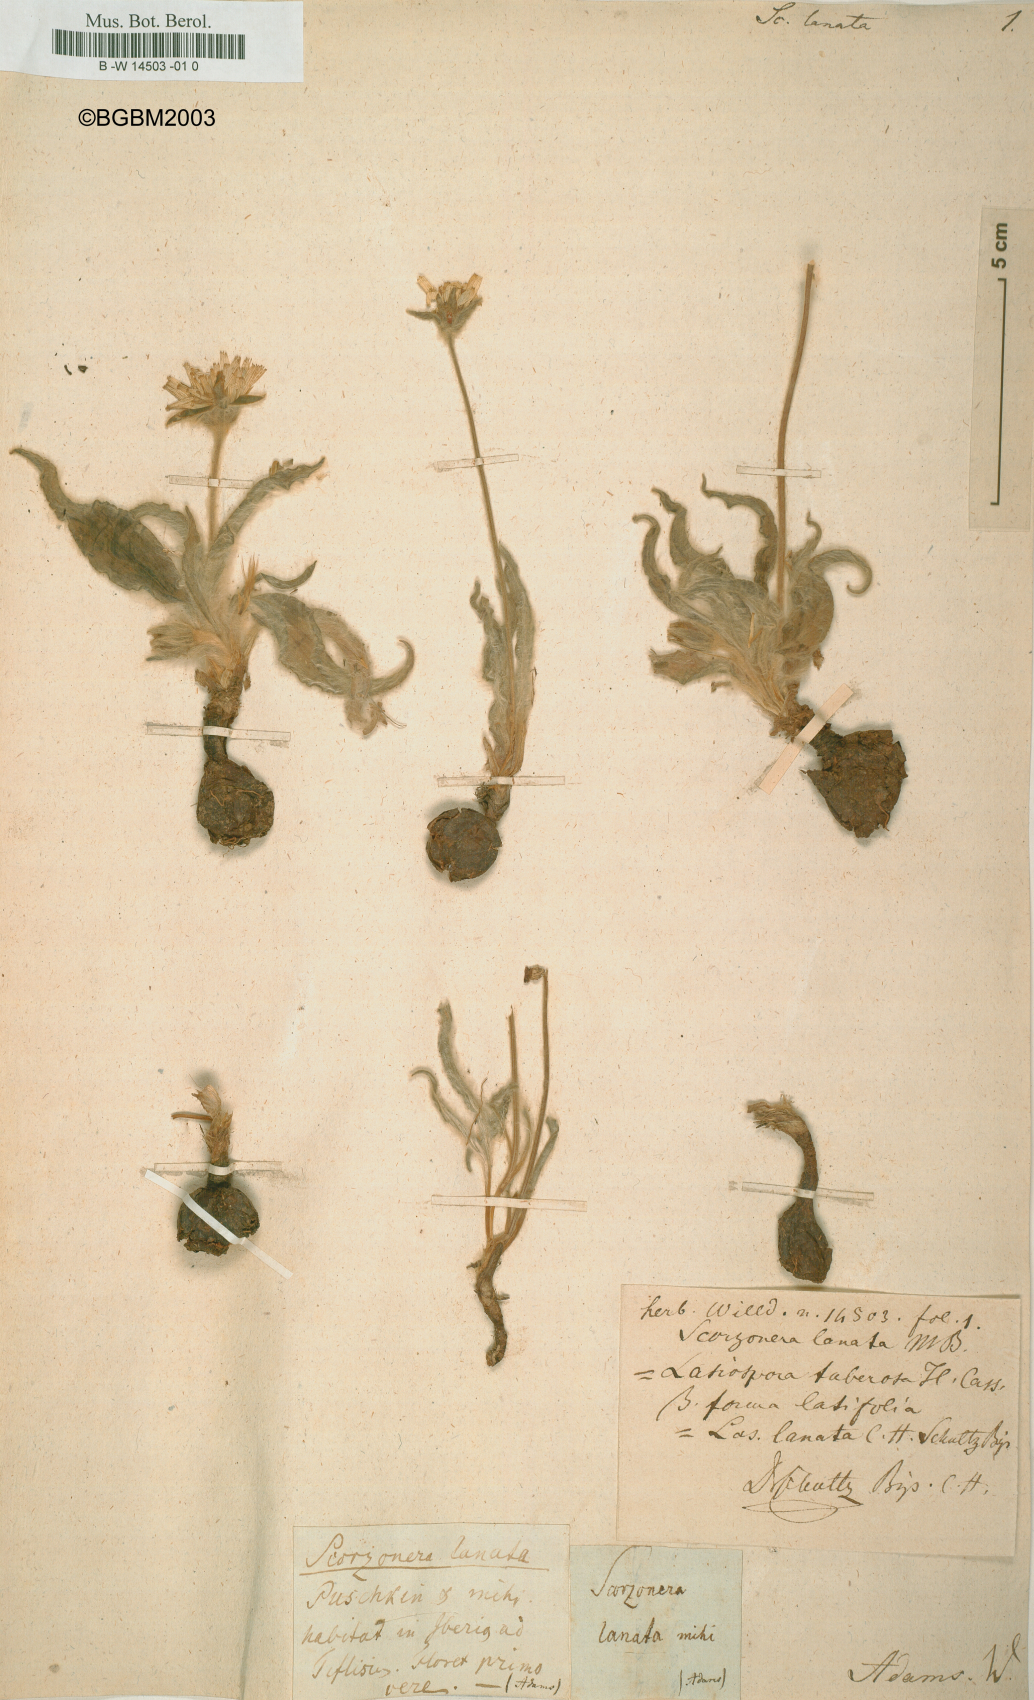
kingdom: Plantae
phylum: Tracheophyta
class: Magnoliopsida
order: Asterales
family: Asteraceae
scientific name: Asteraceae
